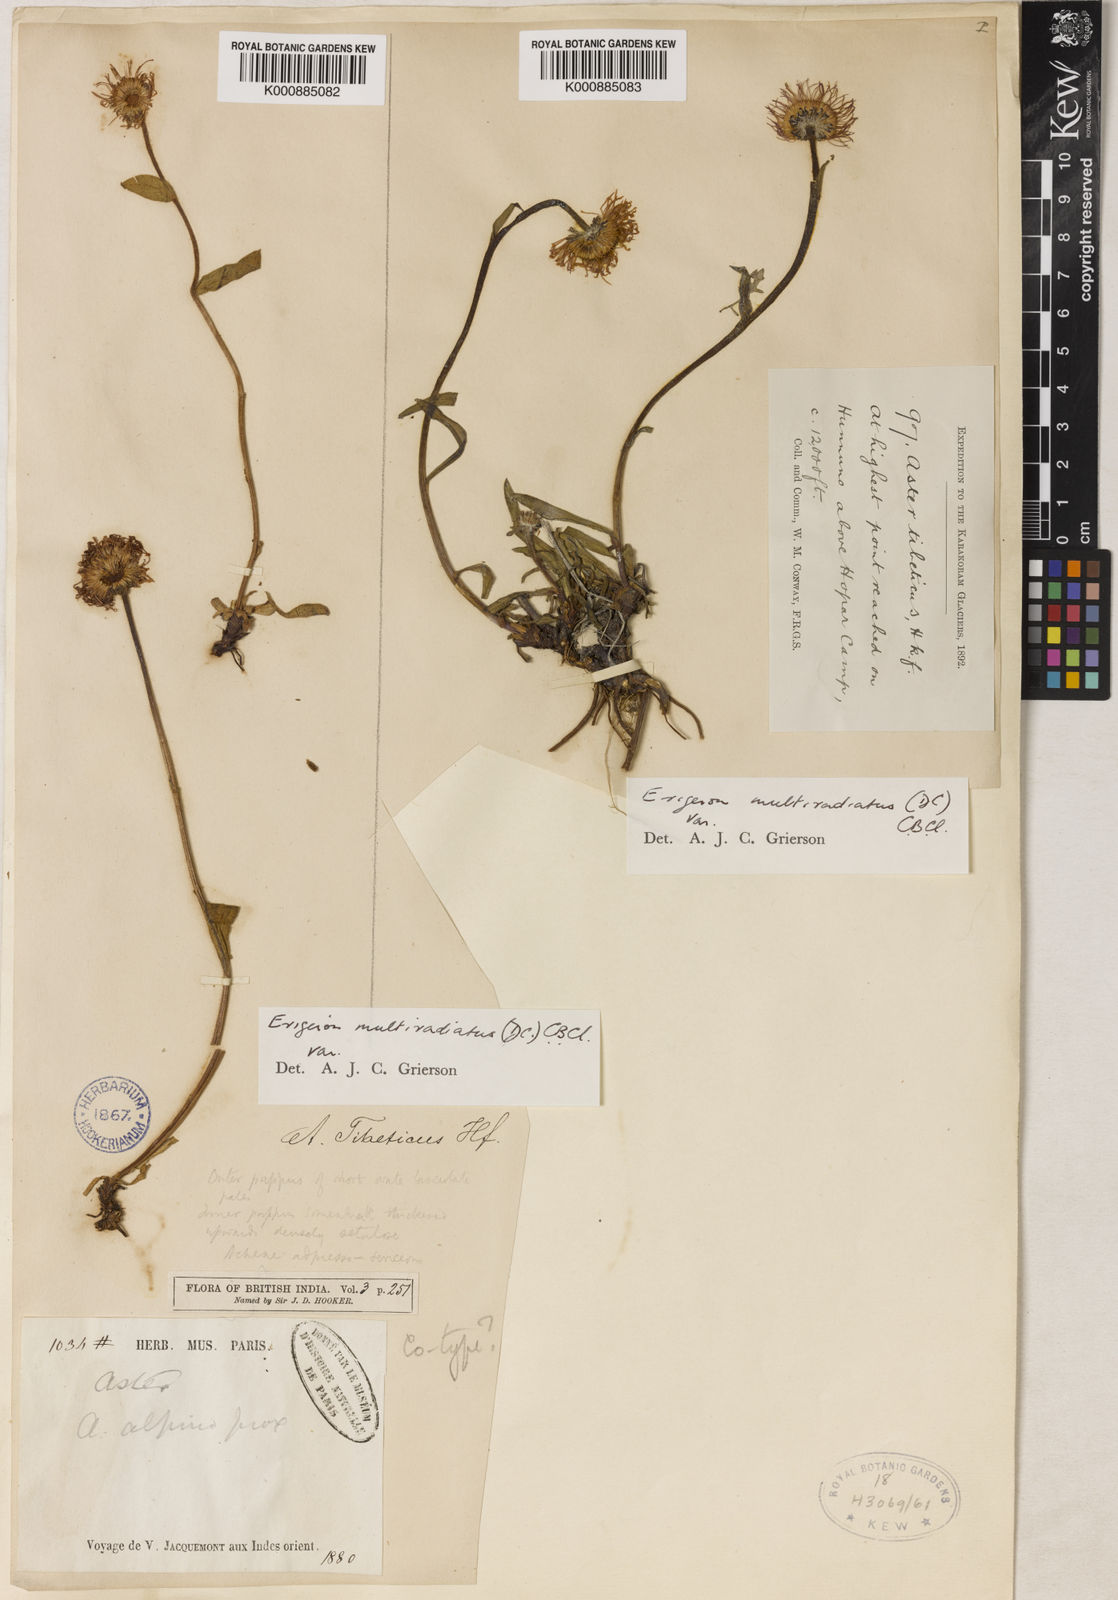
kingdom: Plantae
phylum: Tracheophyta
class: Magnoliopsida
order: Asterales
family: Asteraceae
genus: Erigeron
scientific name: Erigeron
